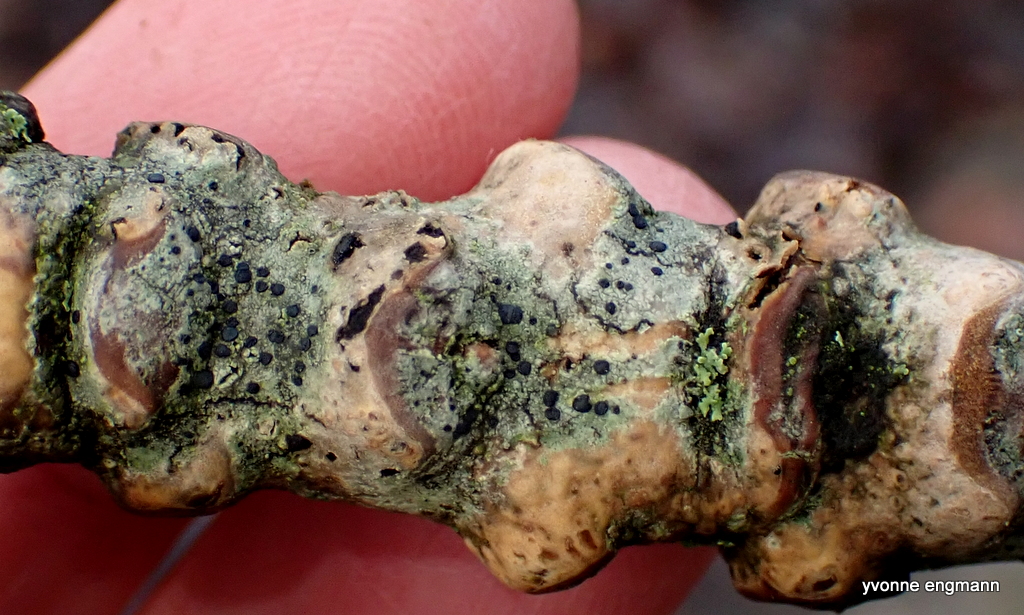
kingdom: Fungi
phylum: Ascomycota
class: Lecanoromycetes
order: Lecanorales
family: Lecanoraceae
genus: Lecidella
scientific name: Lecidella elaeochroma
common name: grågrøn skivelav
